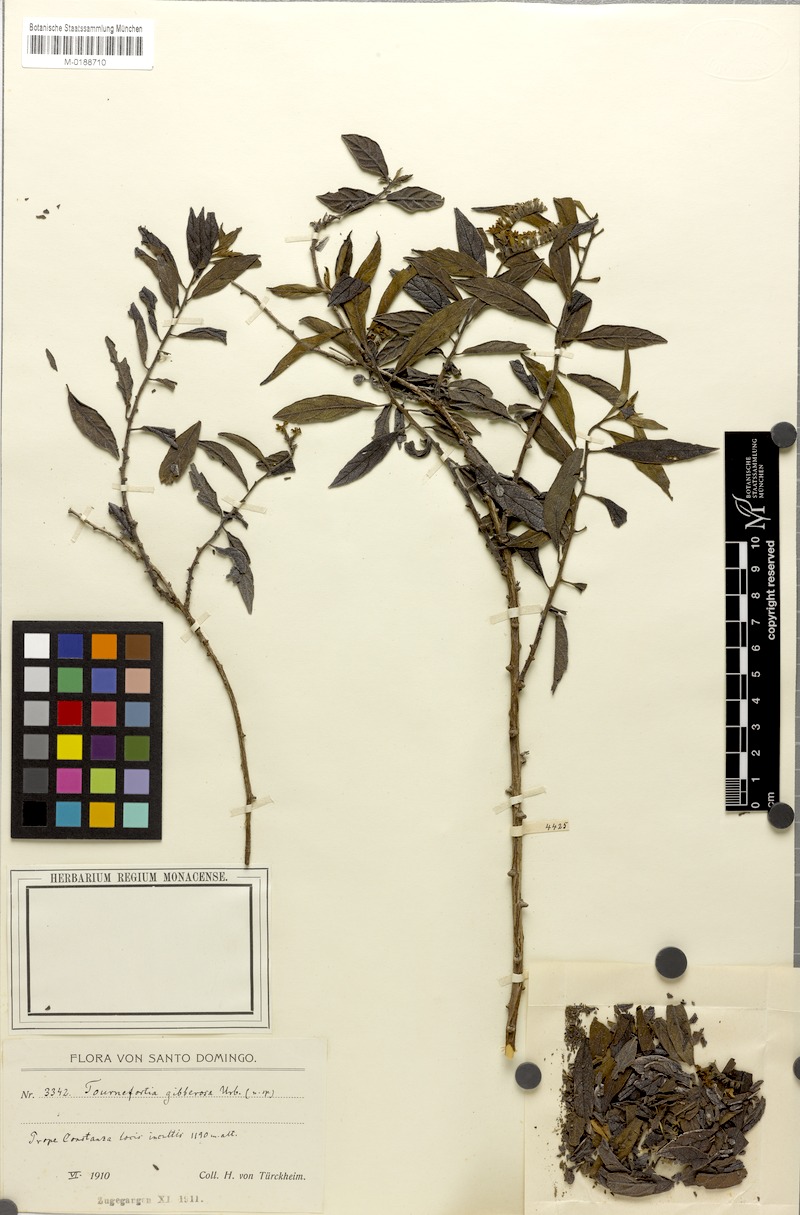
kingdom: Plantae
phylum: Tracheophyta
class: Magnoliopsida
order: Boraginales
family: Heliotropiaceae
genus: Heliotropium
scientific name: Heliotropium gibberosum
